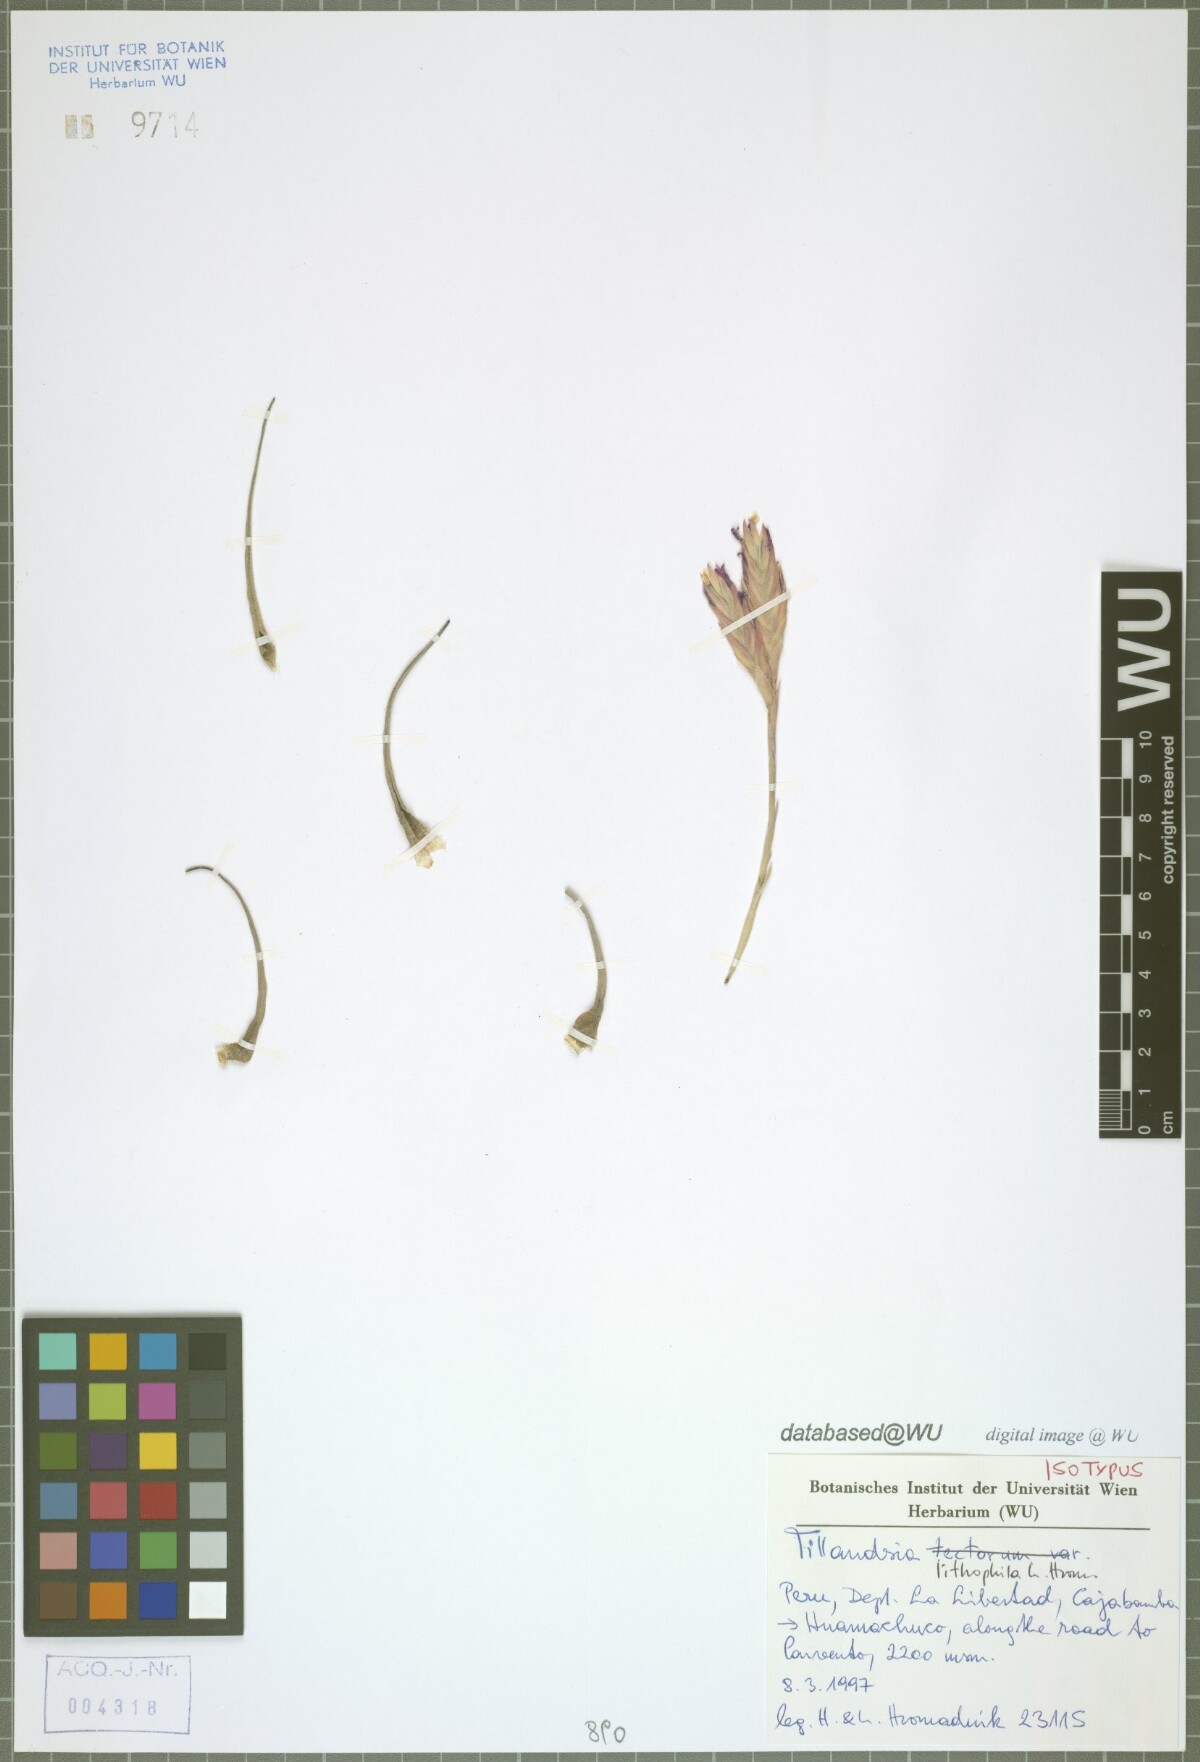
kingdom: Plantae
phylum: Tracheophyta
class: Liliopsida
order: Poales
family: Bromeliaceae
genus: Tillandsia
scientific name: Tillandsia lithophila
